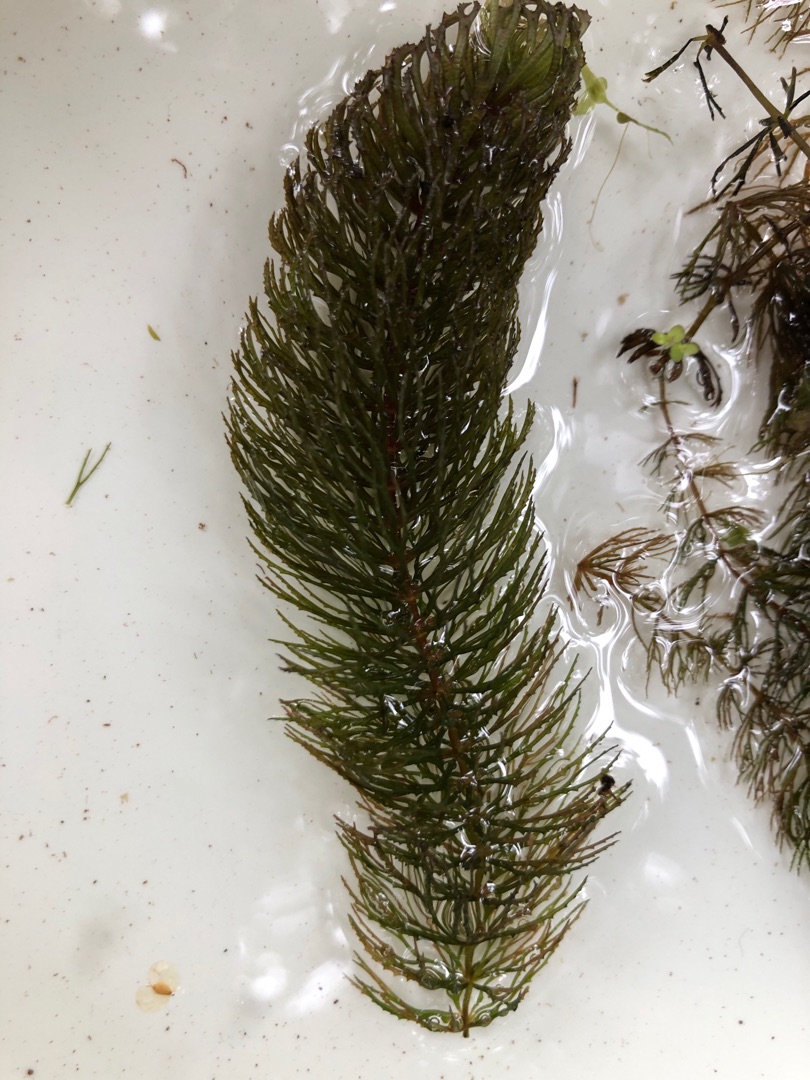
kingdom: Plantae
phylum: Tracheophyta
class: Magnoliopsida
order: Ceratophyllales
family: Ceratophyllaceae
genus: Ceratophyllum
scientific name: Ceratophyllum demersum
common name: Tornfrøet hornblad
